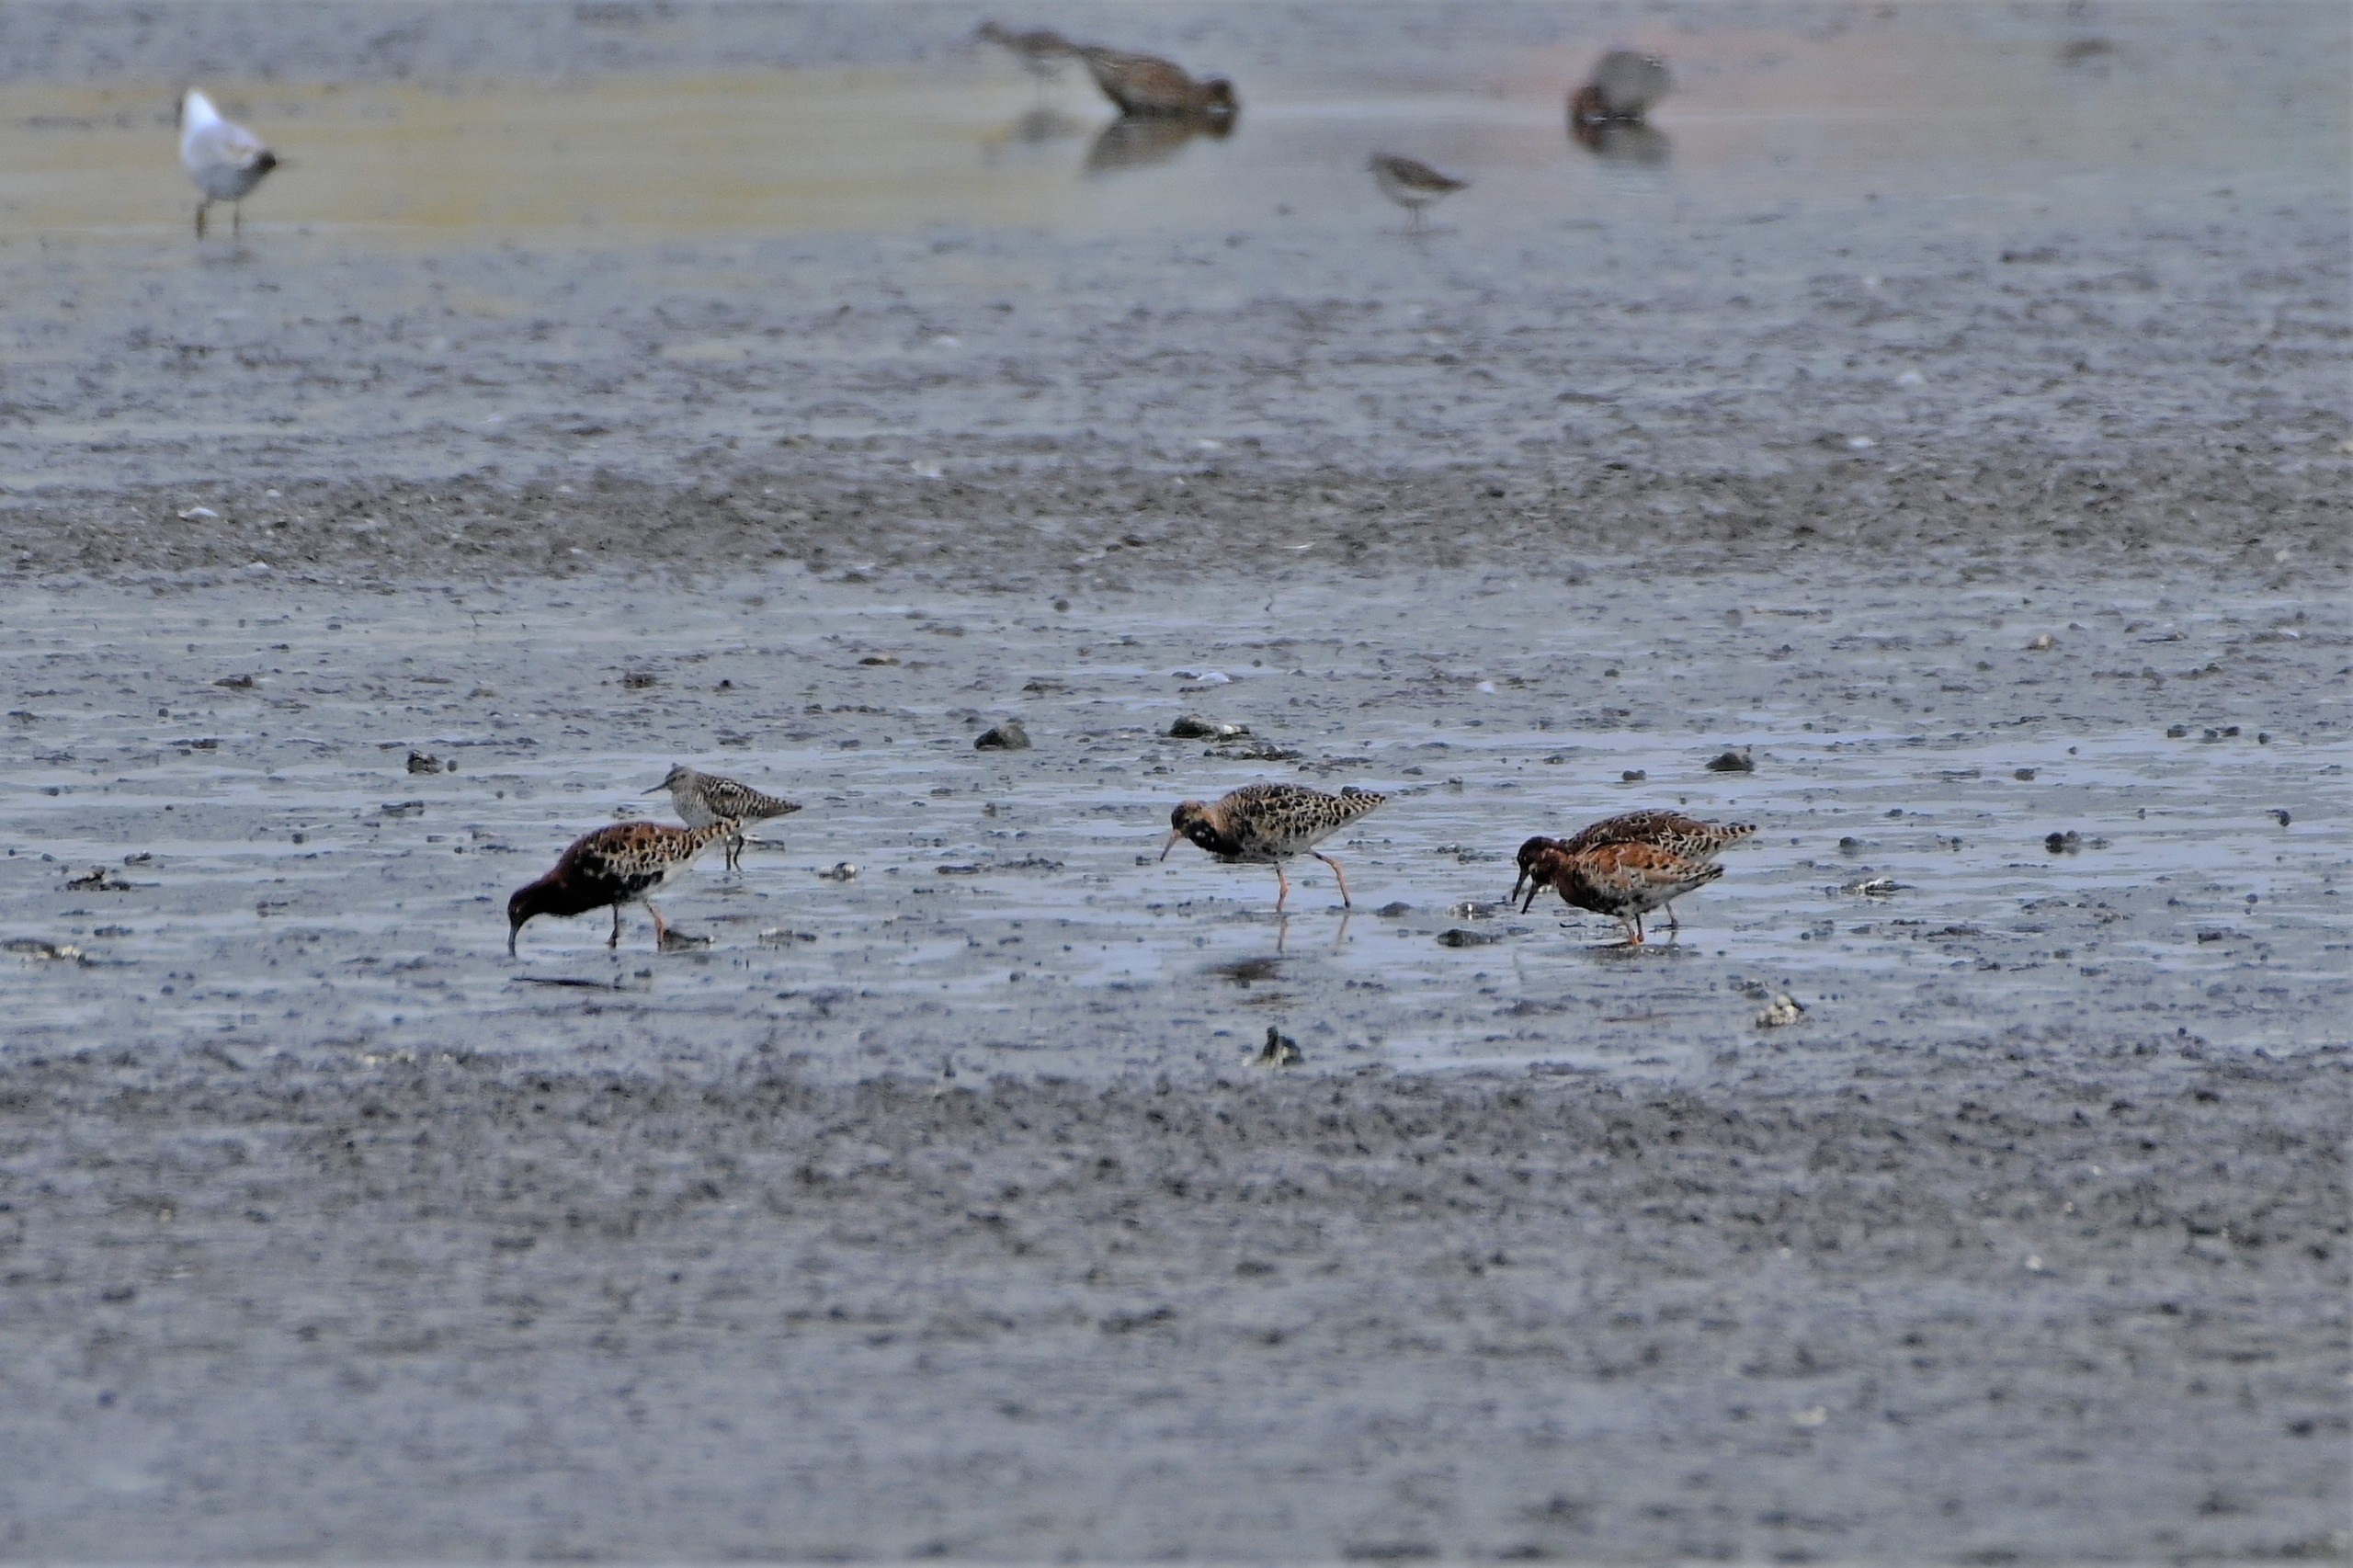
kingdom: Animalia
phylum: Chordata
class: Aves
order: Charadriiformes
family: Scolopacidae
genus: Calidris
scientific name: Calidris pugnax
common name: Brushane
